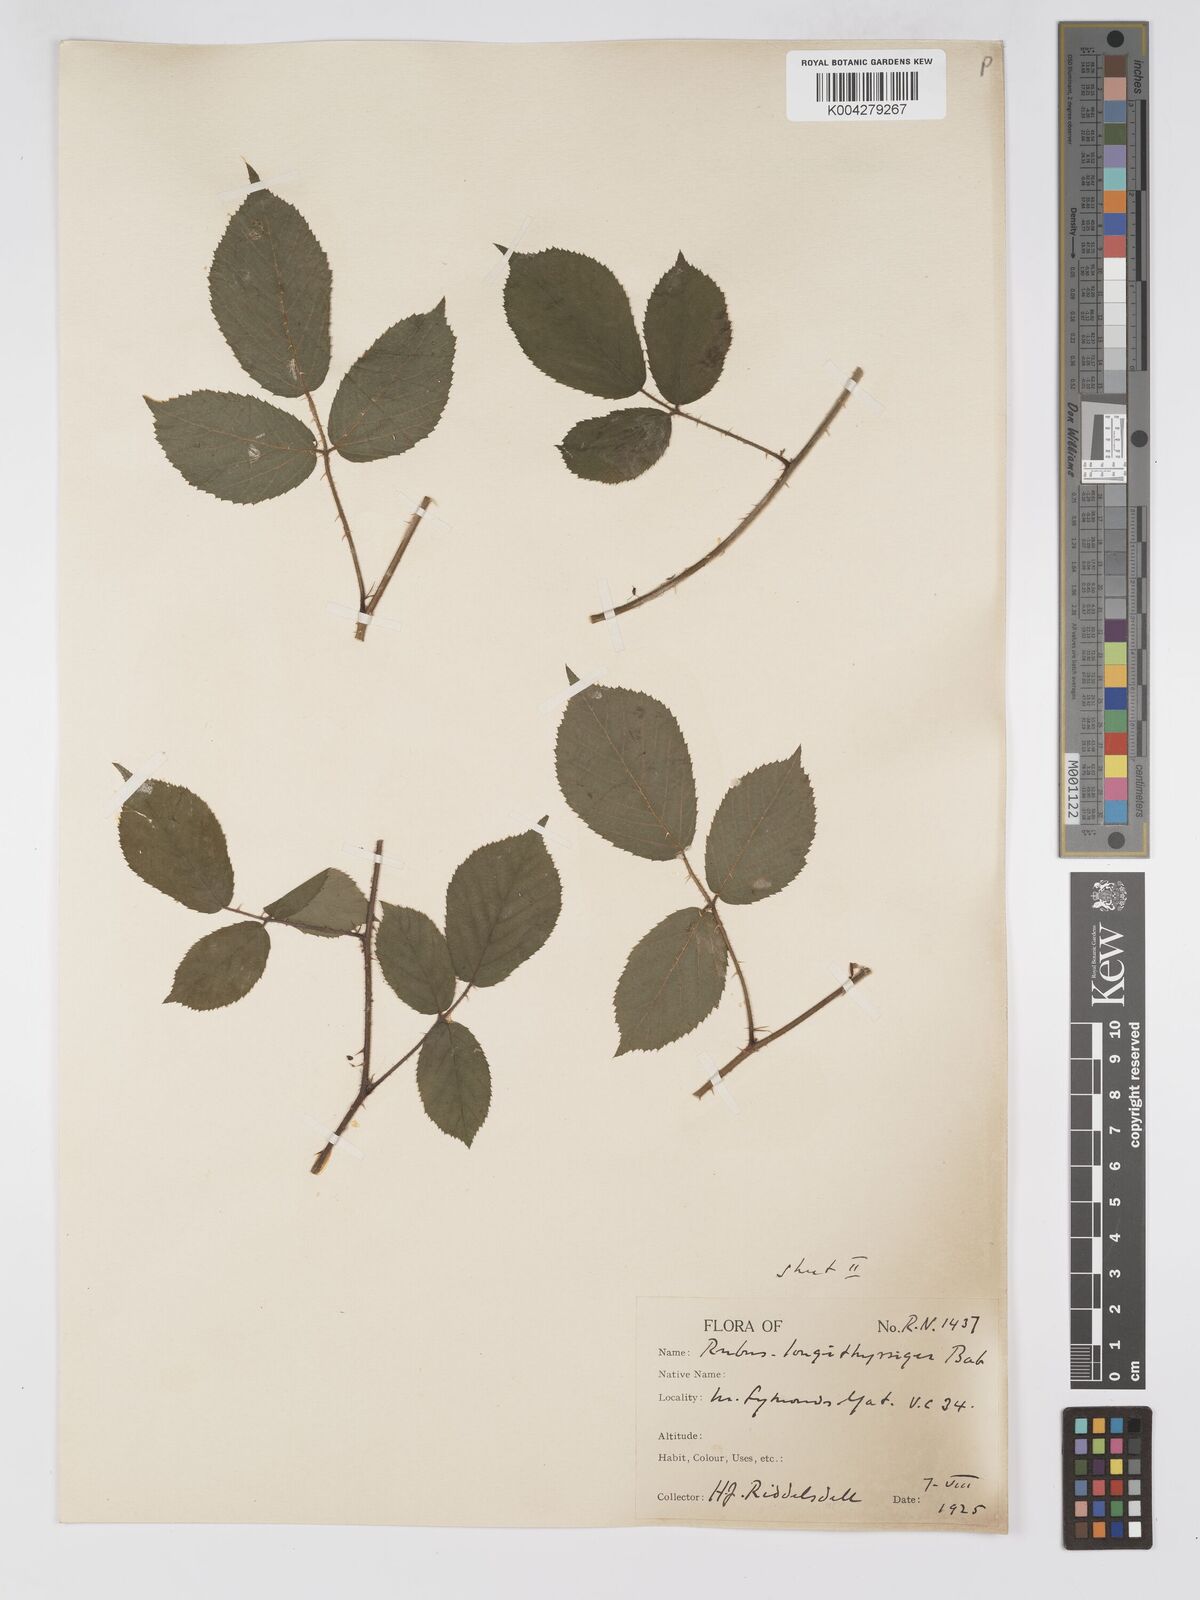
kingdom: Plantae
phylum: Tracheophyta
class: Magnoliopsida
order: Rosales
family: Rosaceae
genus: Rubus
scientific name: Rubus longithyrsiger
